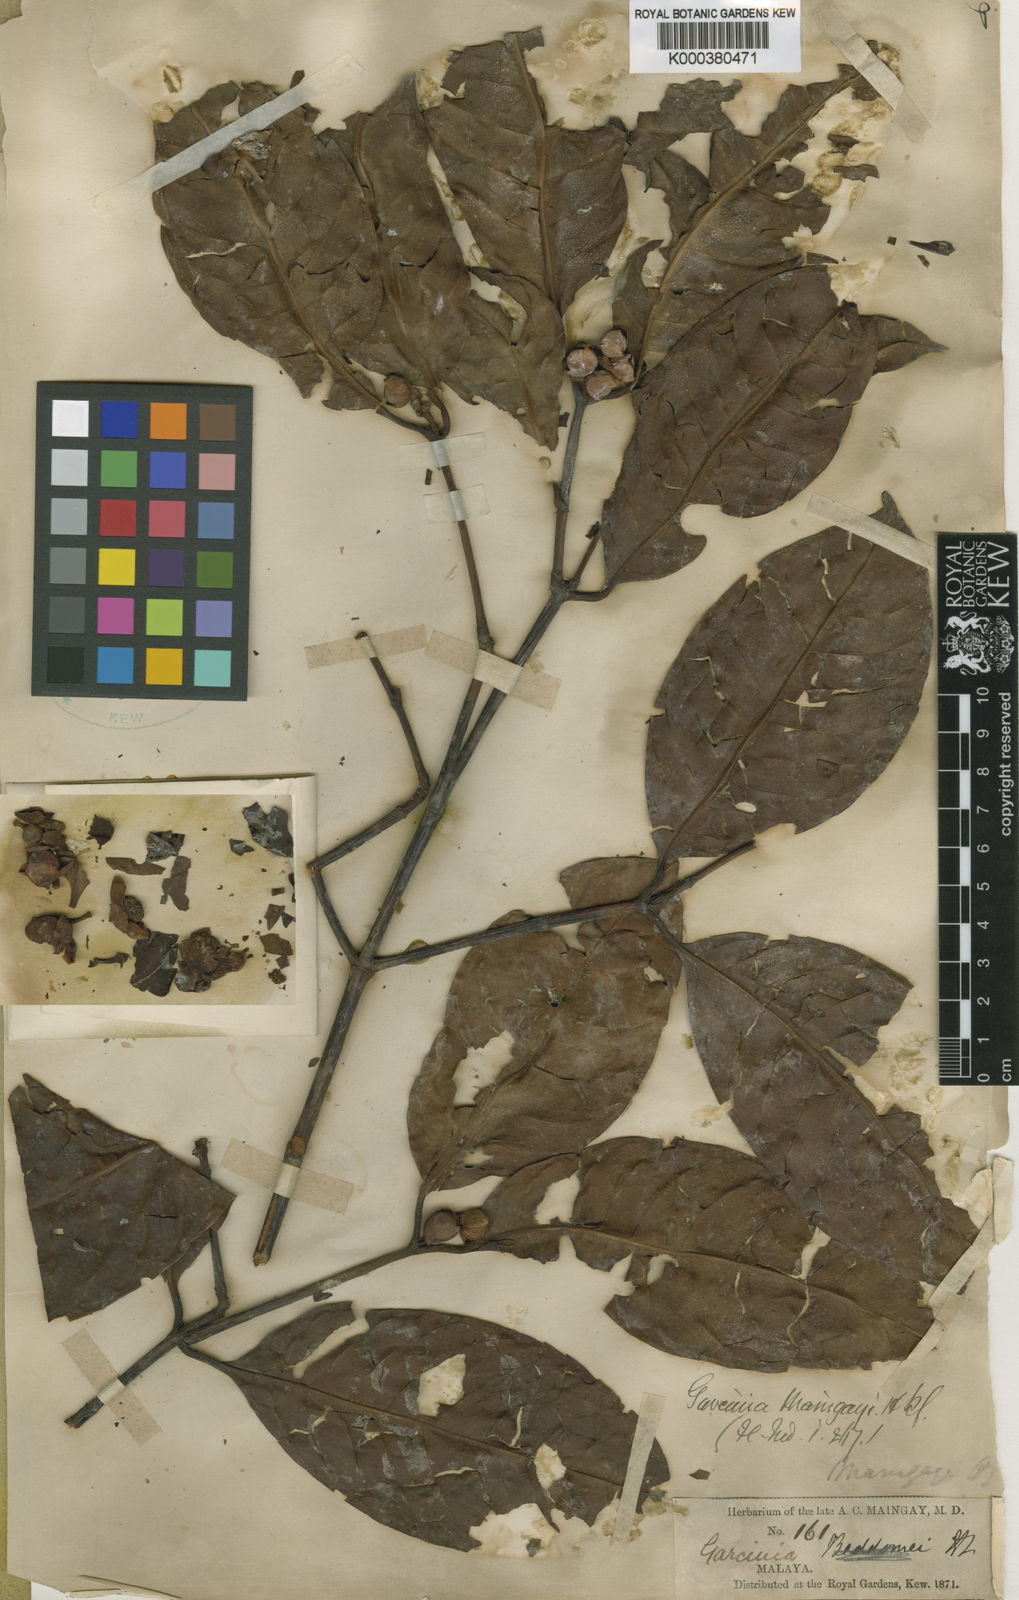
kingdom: Plantae
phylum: Tracheophyta
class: Magnoliopsida
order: Malpighiales
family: Clusiaceae
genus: Garcinia
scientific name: Garcinia
